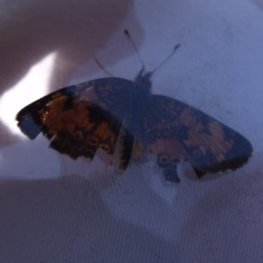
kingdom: Animalia
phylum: Arthropoda
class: Insecta
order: Lepidoptera
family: Nymphalidae
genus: Phyciodes
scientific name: Phyciodes tharos
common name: Northern Crescent
